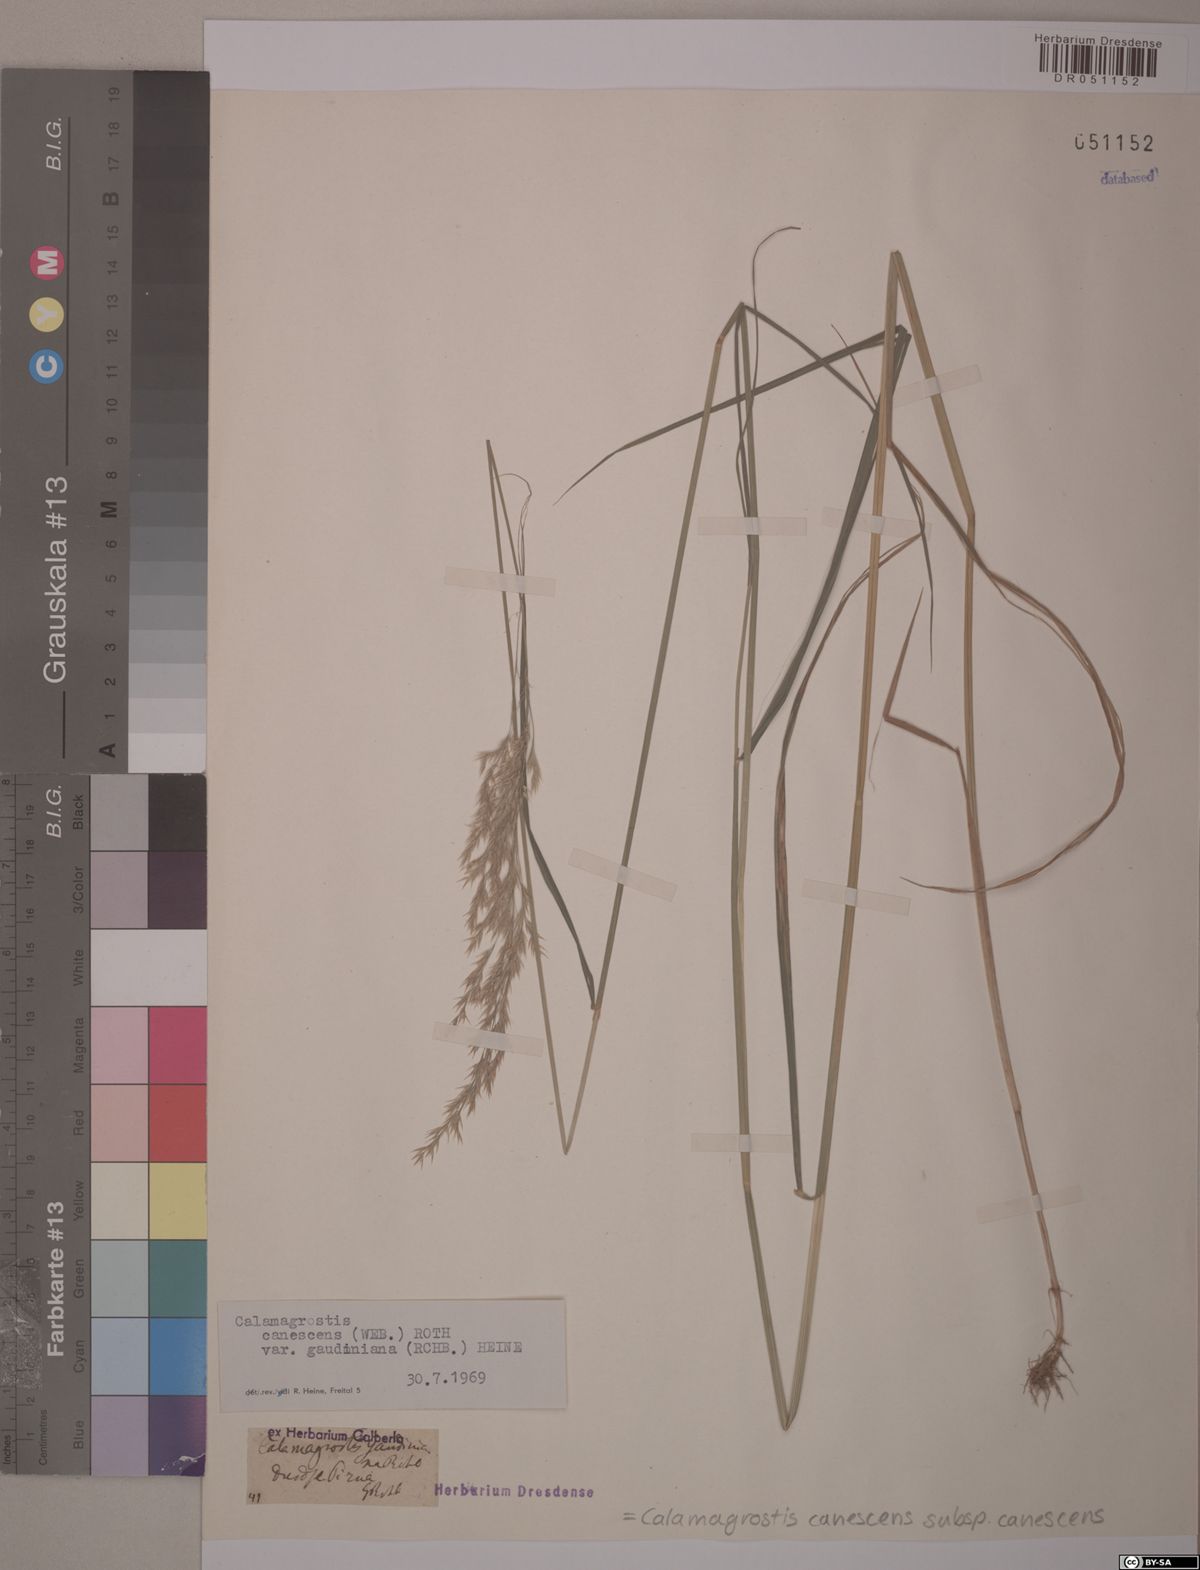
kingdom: Plantae
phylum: Tracheophyta
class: Liliopsida
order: Poales
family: Poaceae
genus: Calamagrostis
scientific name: Calamagrostis canescens
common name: Purple small-reed
